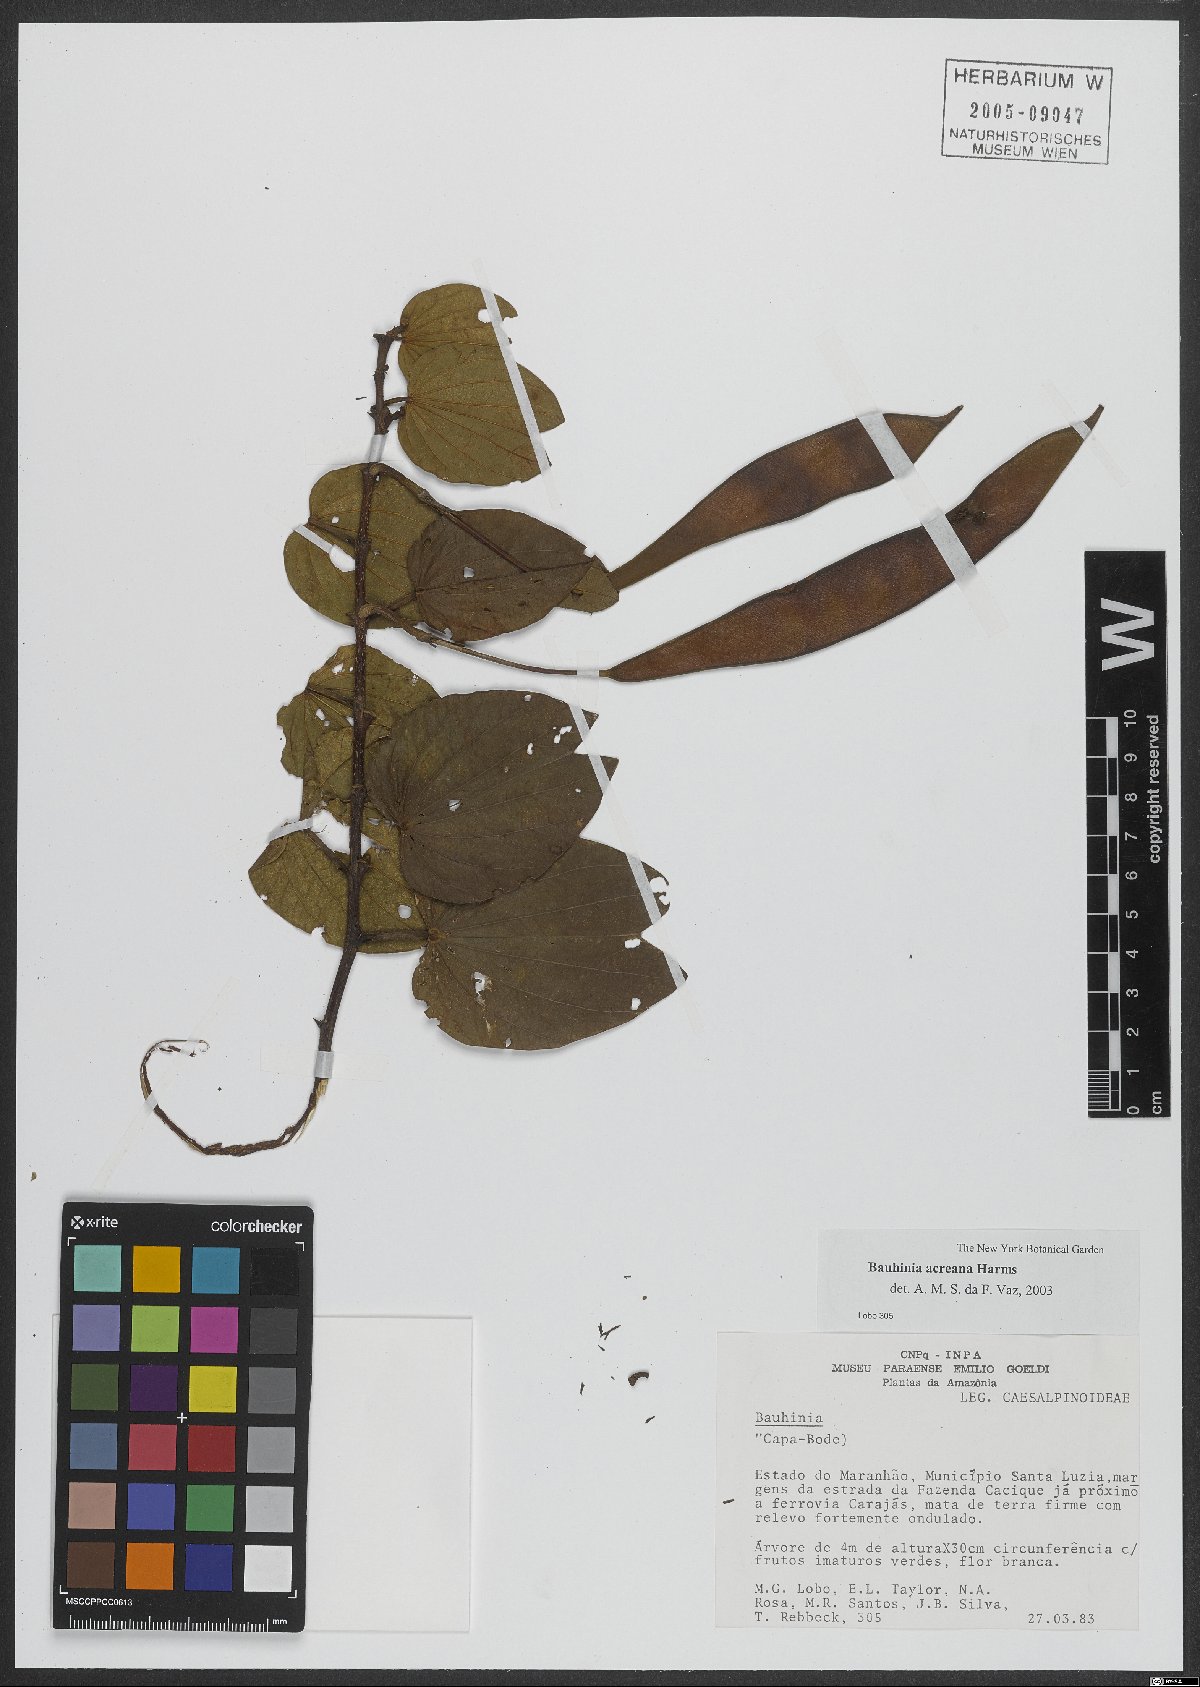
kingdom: Plantae
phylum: Tracheophyta
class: Magnoliopsida
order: Fabales
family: Fabaceae
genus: Bauhinia
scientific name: Bauhinia acreana
